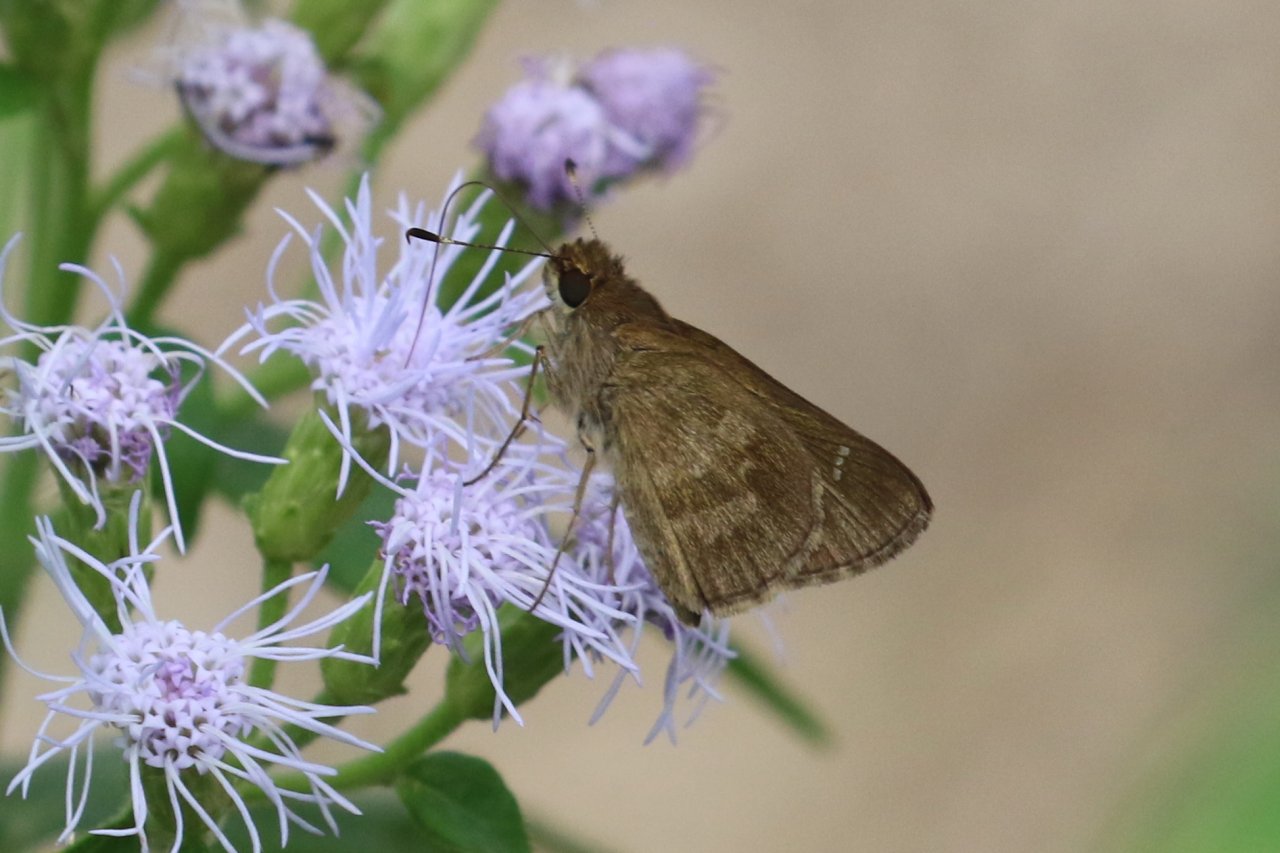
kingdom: Animalia
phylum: Arthropoda
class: Insecta
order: Lepidoptera
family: Hesperiidae
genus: Achlyodes
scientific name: Achlyodes thraso
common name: Sickle-winged Skipper
